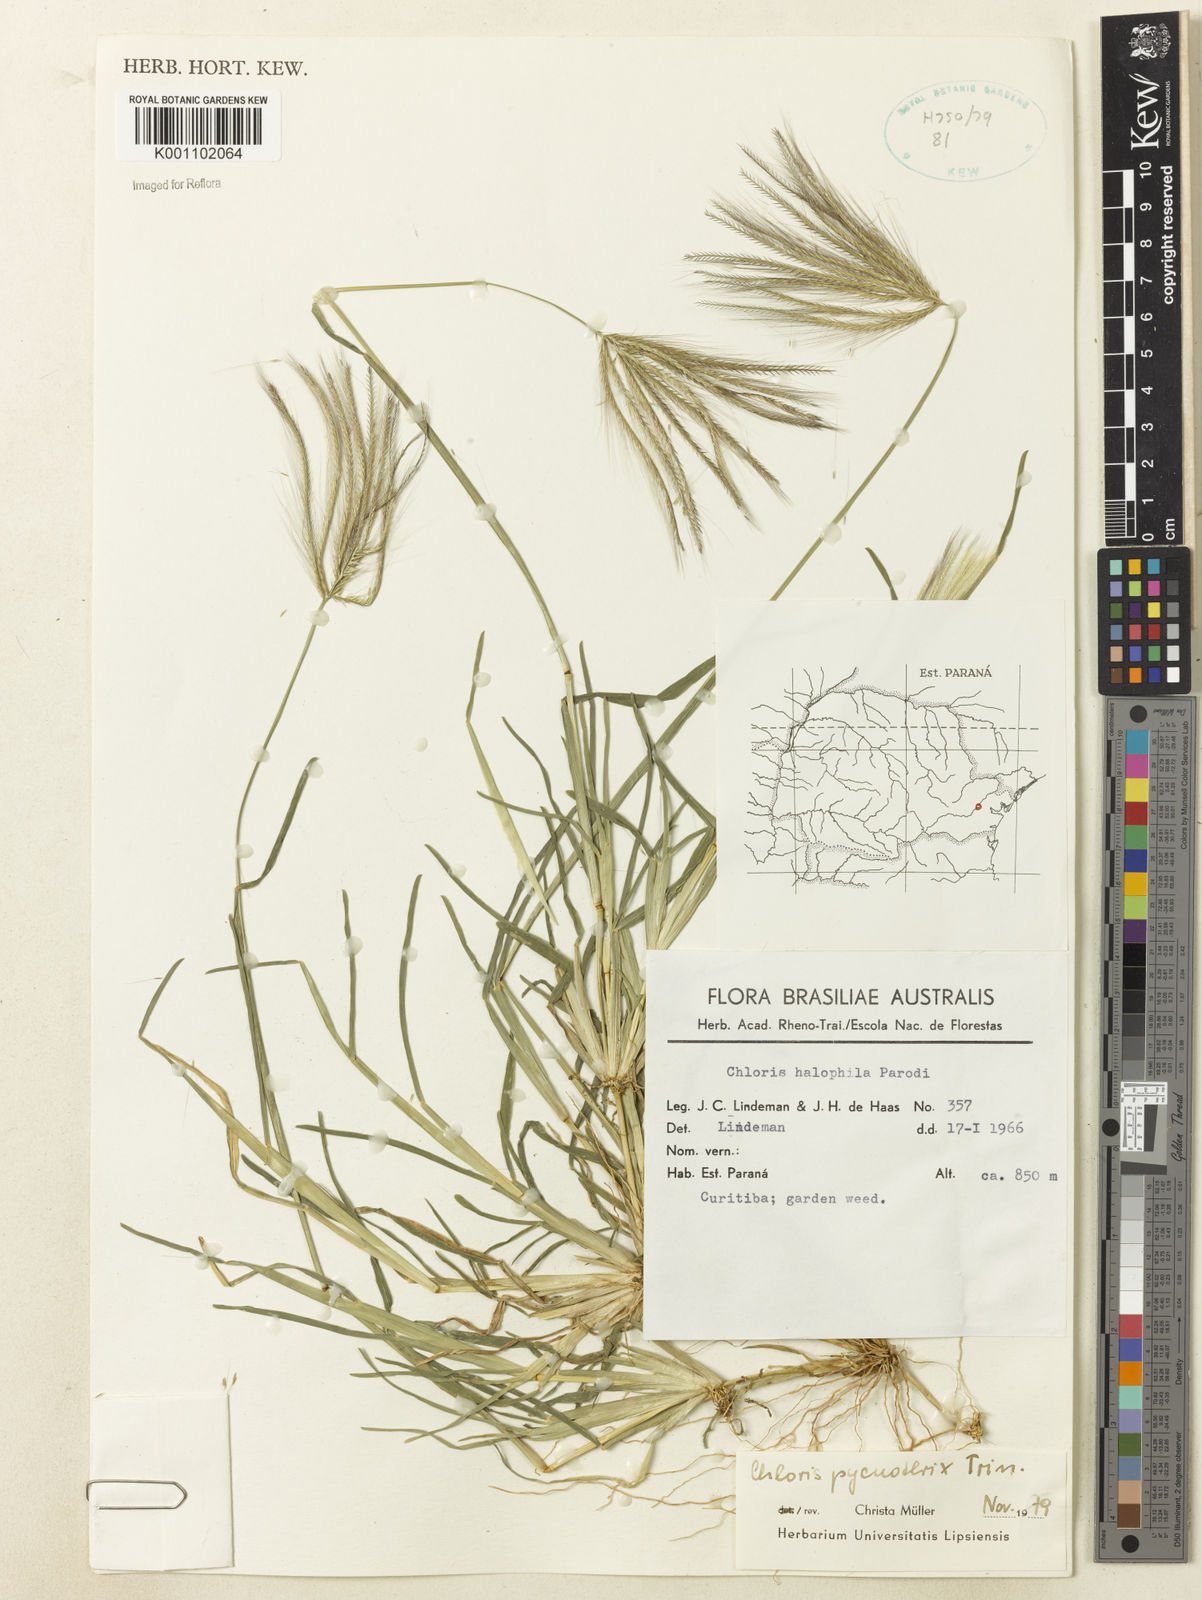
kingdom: Plantae
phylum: Tracheophyta
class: Liliopsida
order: Poales
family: Poaceae
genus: Chloris
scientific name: Chloris pycnothrix
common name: Spiderweb chloris
